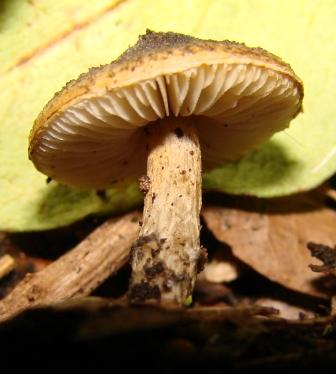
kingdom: Fungi
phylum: Basidiomycota
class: Agaricomycetes
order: Agaricales
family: Agaricaceae
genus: Lepiota
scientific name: Lepiota griseovirens
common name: grågrøn parasolhat
